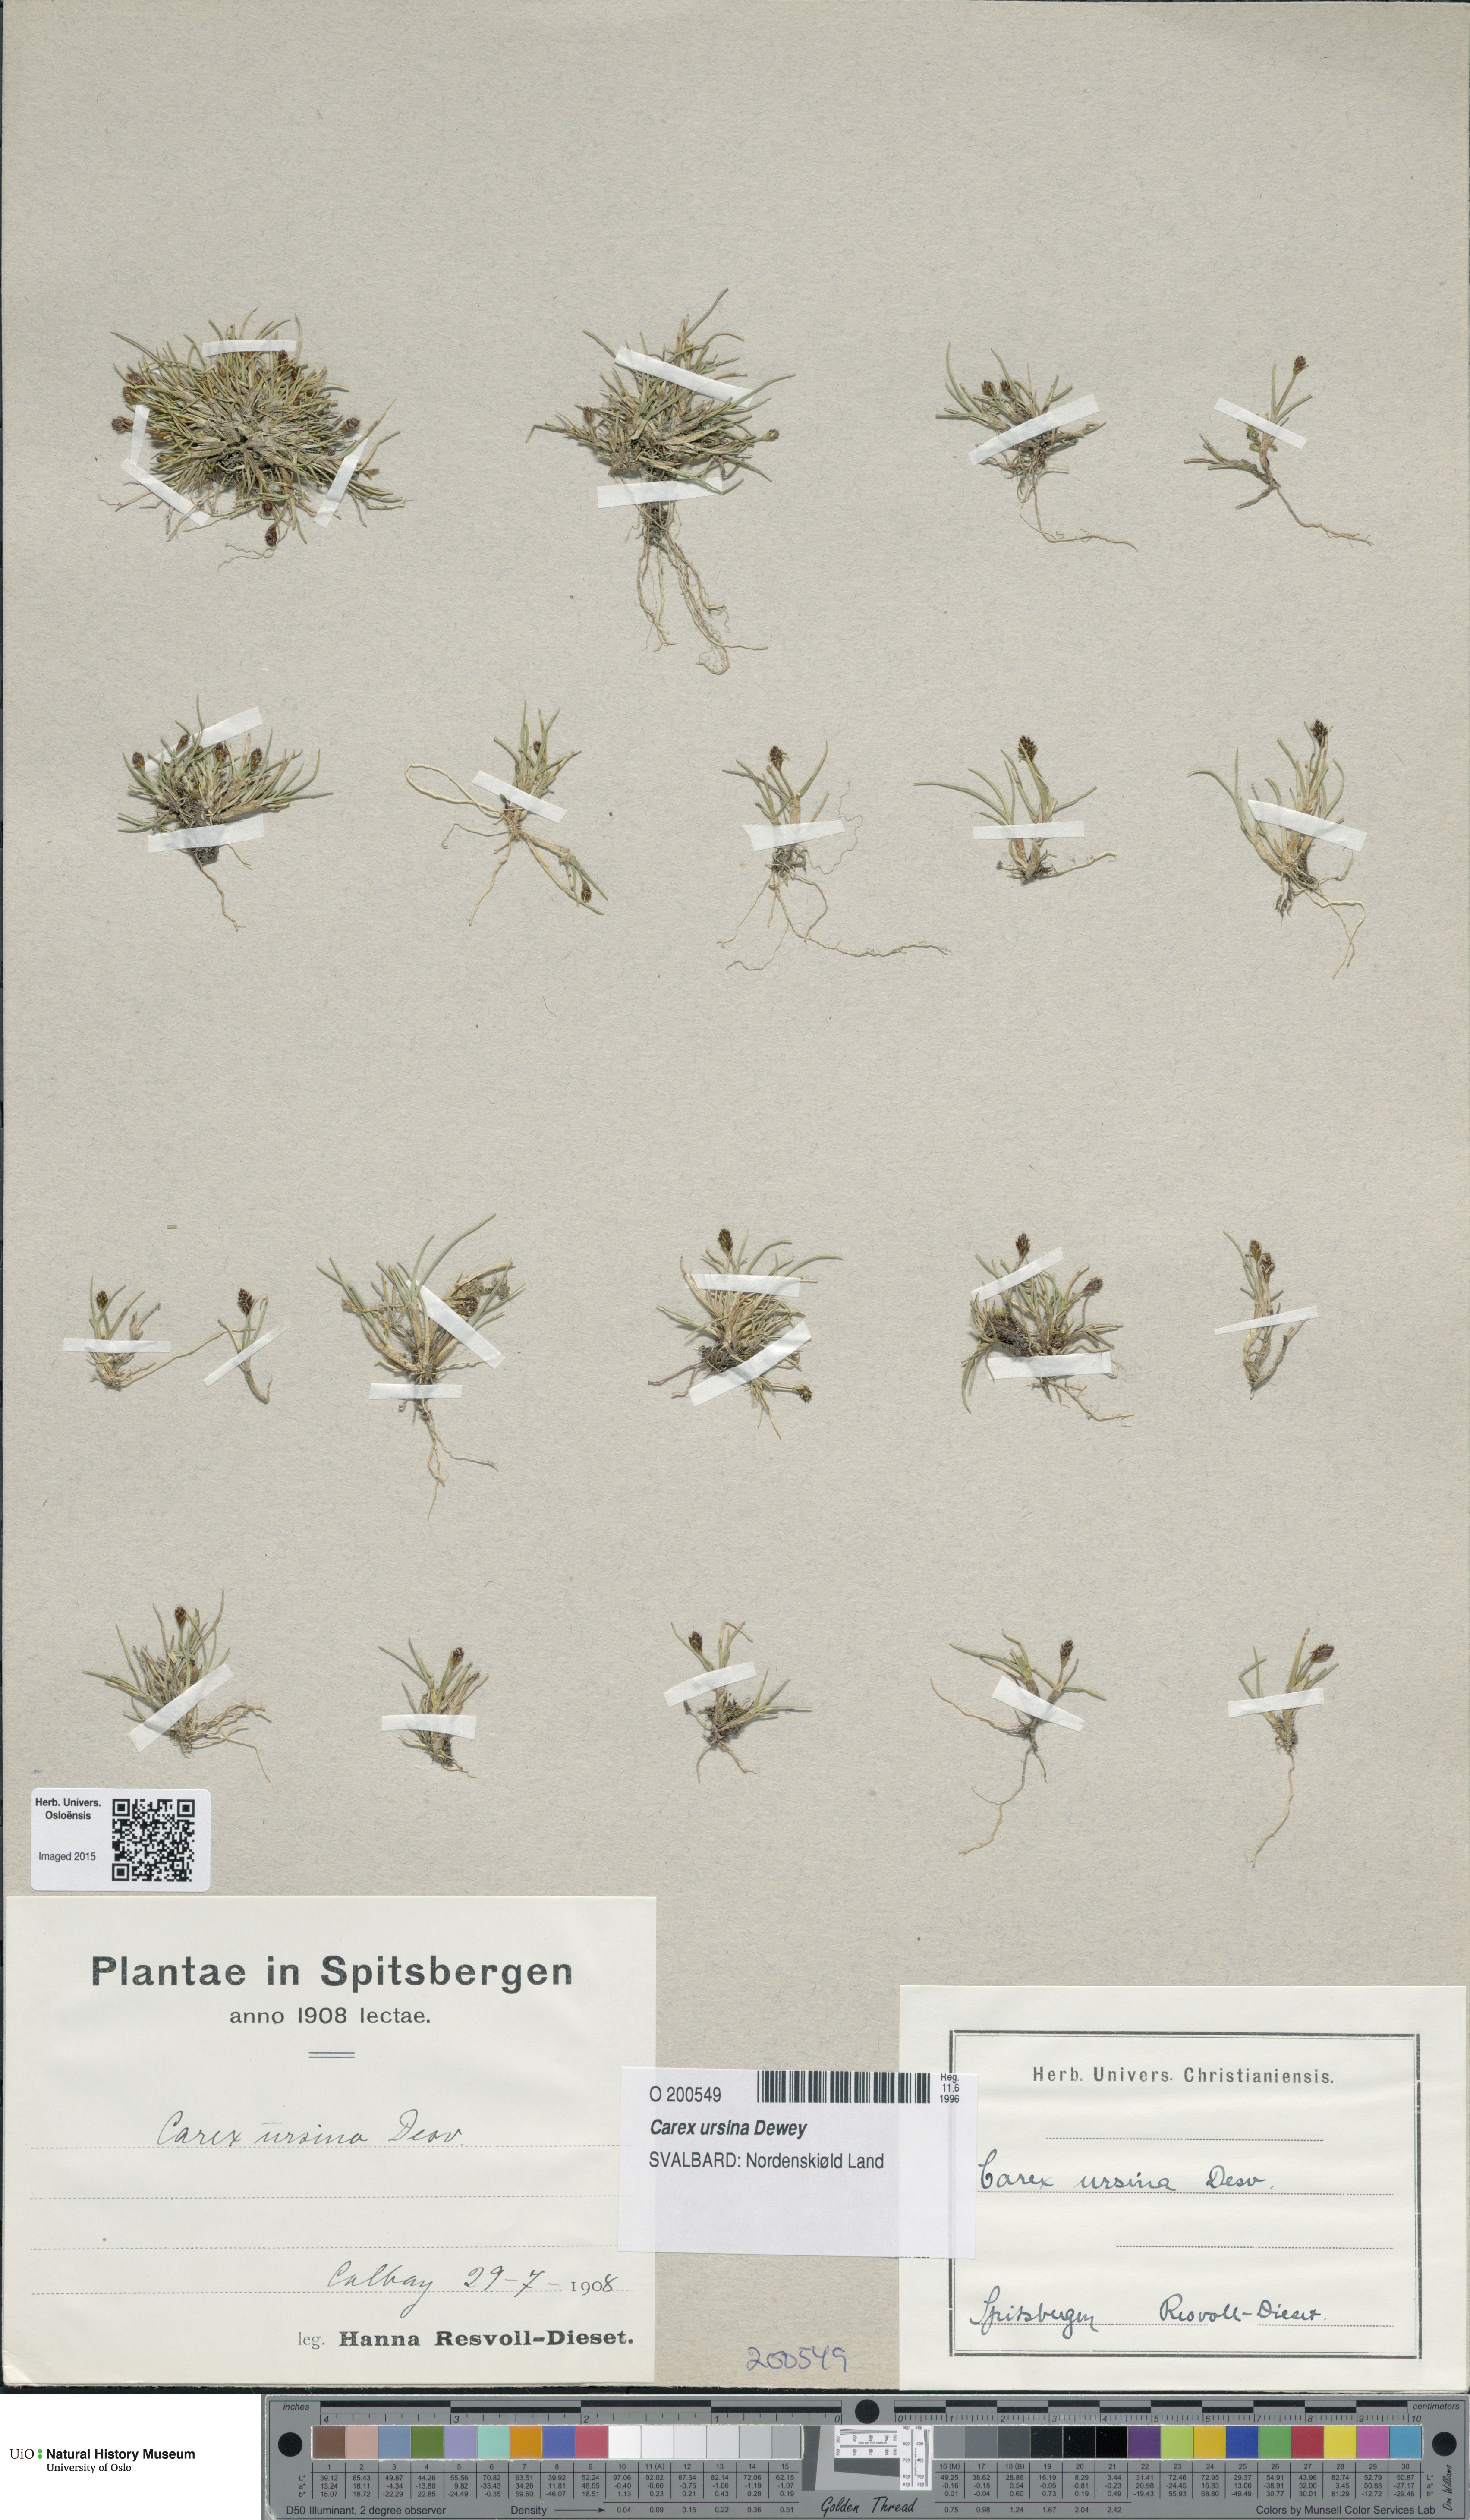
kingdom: Plantae
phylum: Tracheophyta
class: Liliopsida
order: Poales
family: Cyperaceae
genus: Carex
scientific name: Carex ursina
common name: Bear sedge
